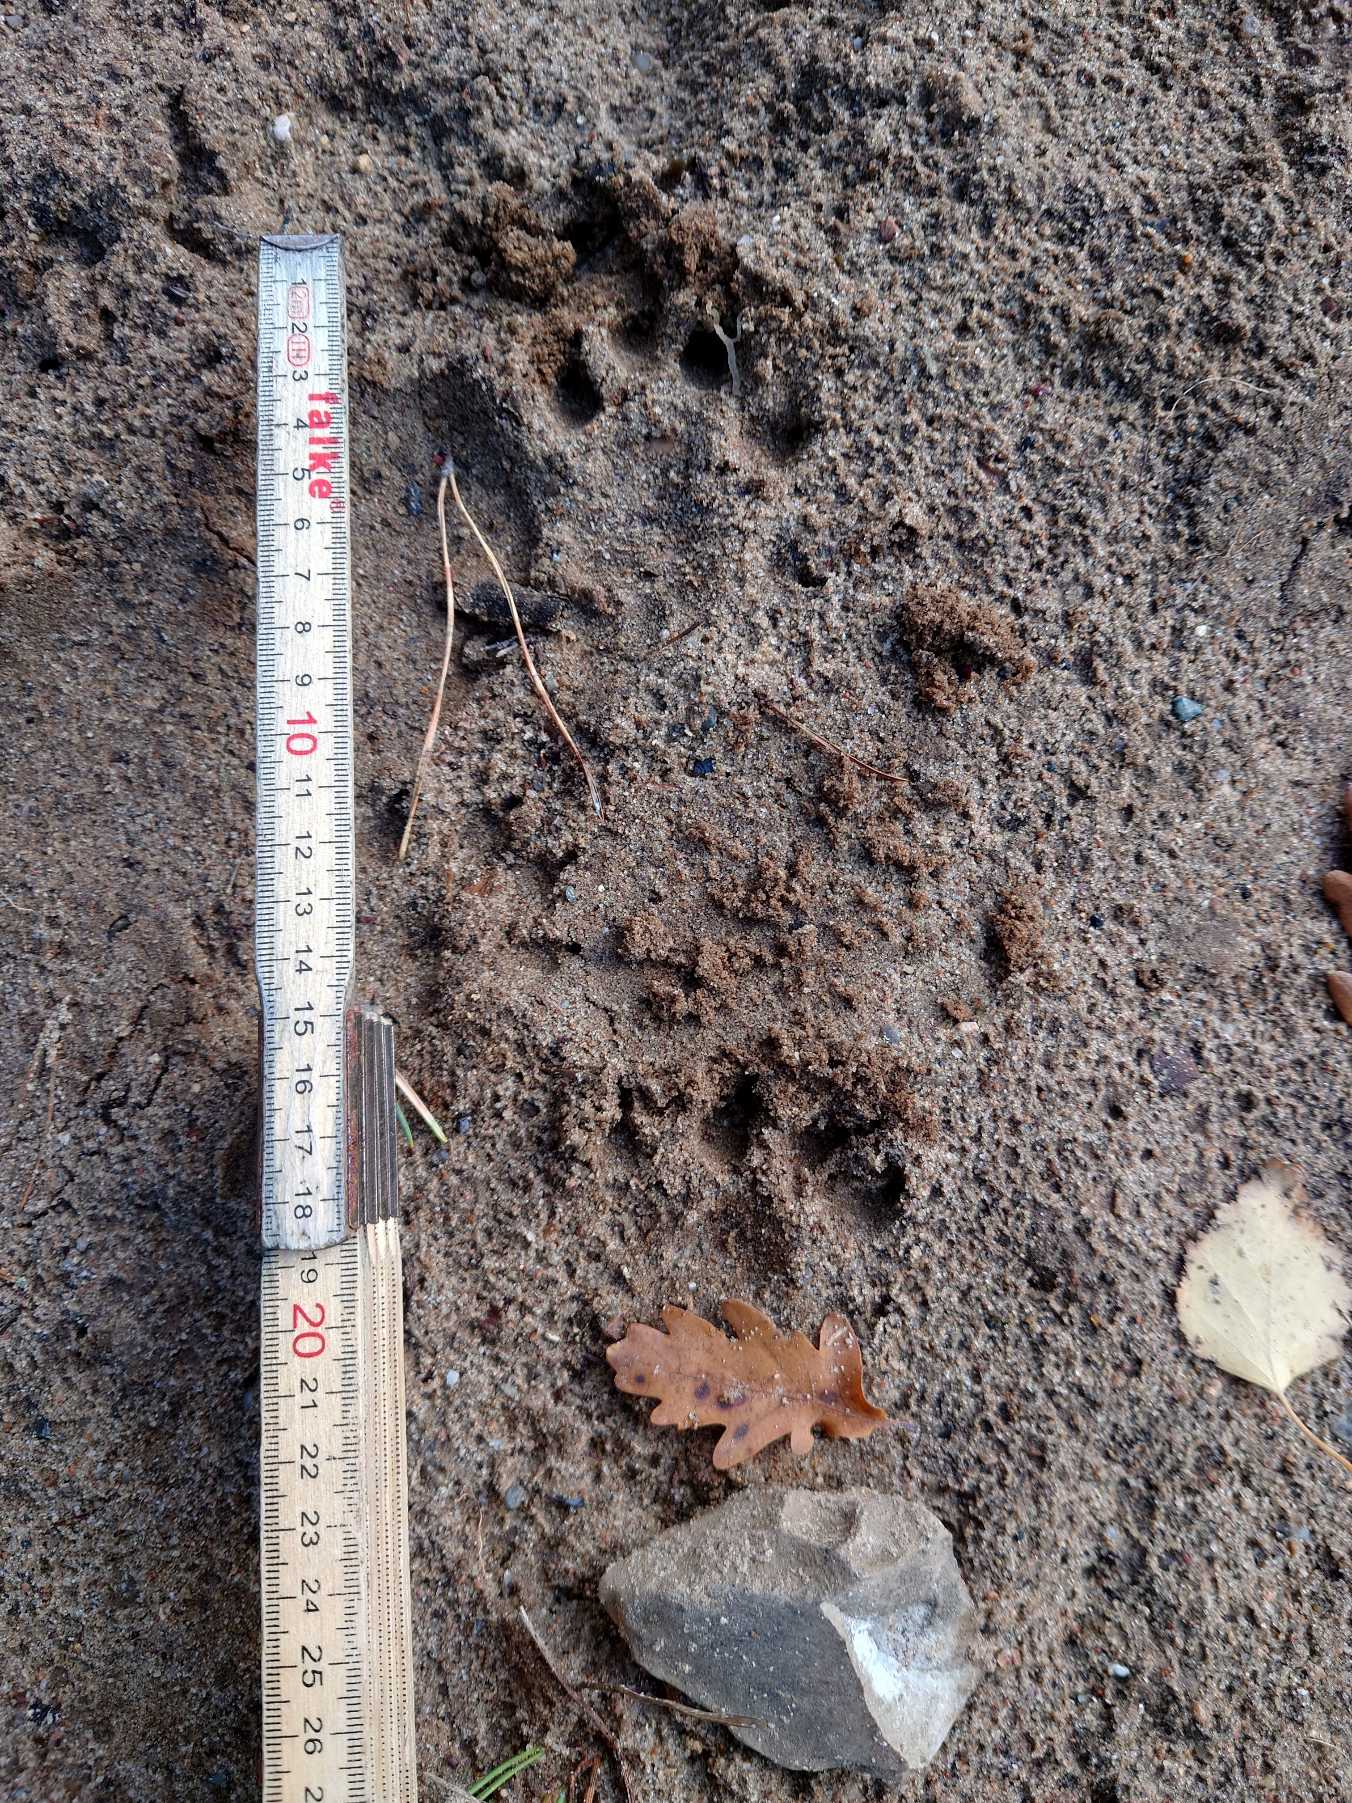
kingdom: Animalia
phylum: Chordata
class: Mammalia
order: Carnivora
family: Mustelidae
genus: Lutra
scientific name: Lutra lutra
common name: Odder
